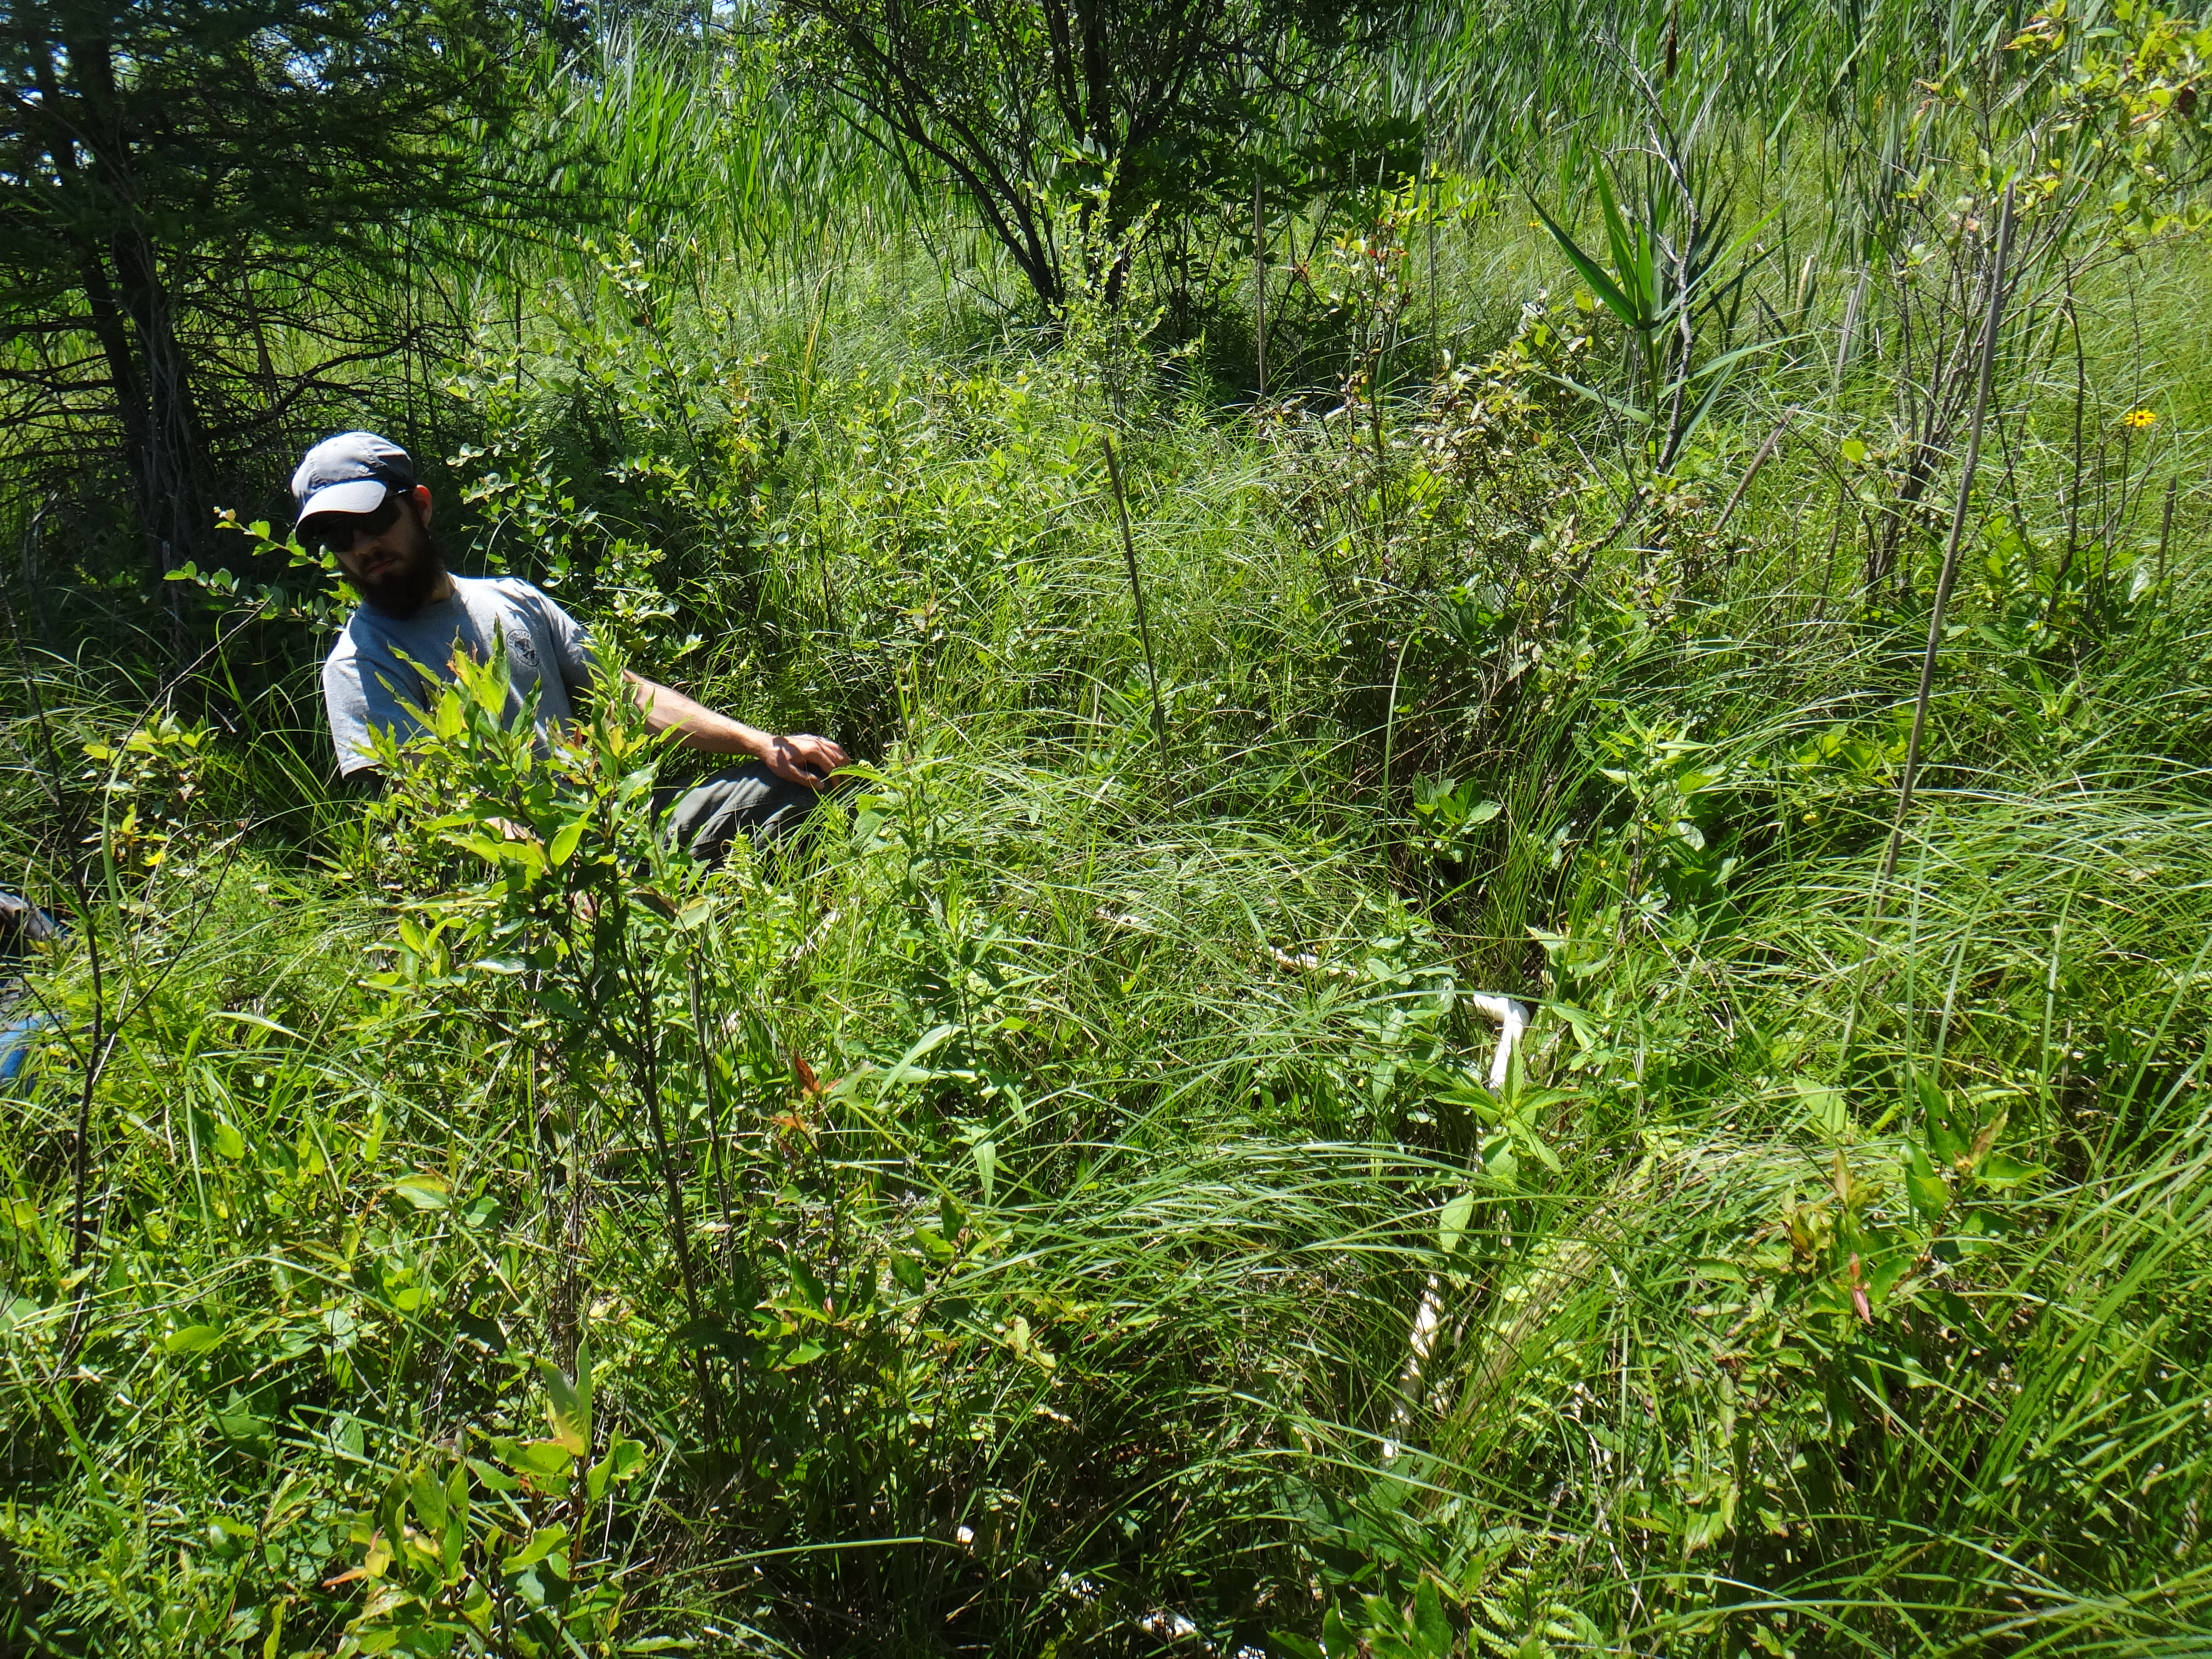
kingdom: Plantae
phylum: Tracheophyta
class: Magnoliopsida
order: Lamiales
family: Lamiaceae
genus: Pycnanthemum
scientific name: Pycnanthemum virginianum
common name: Virginia mountain-mint
